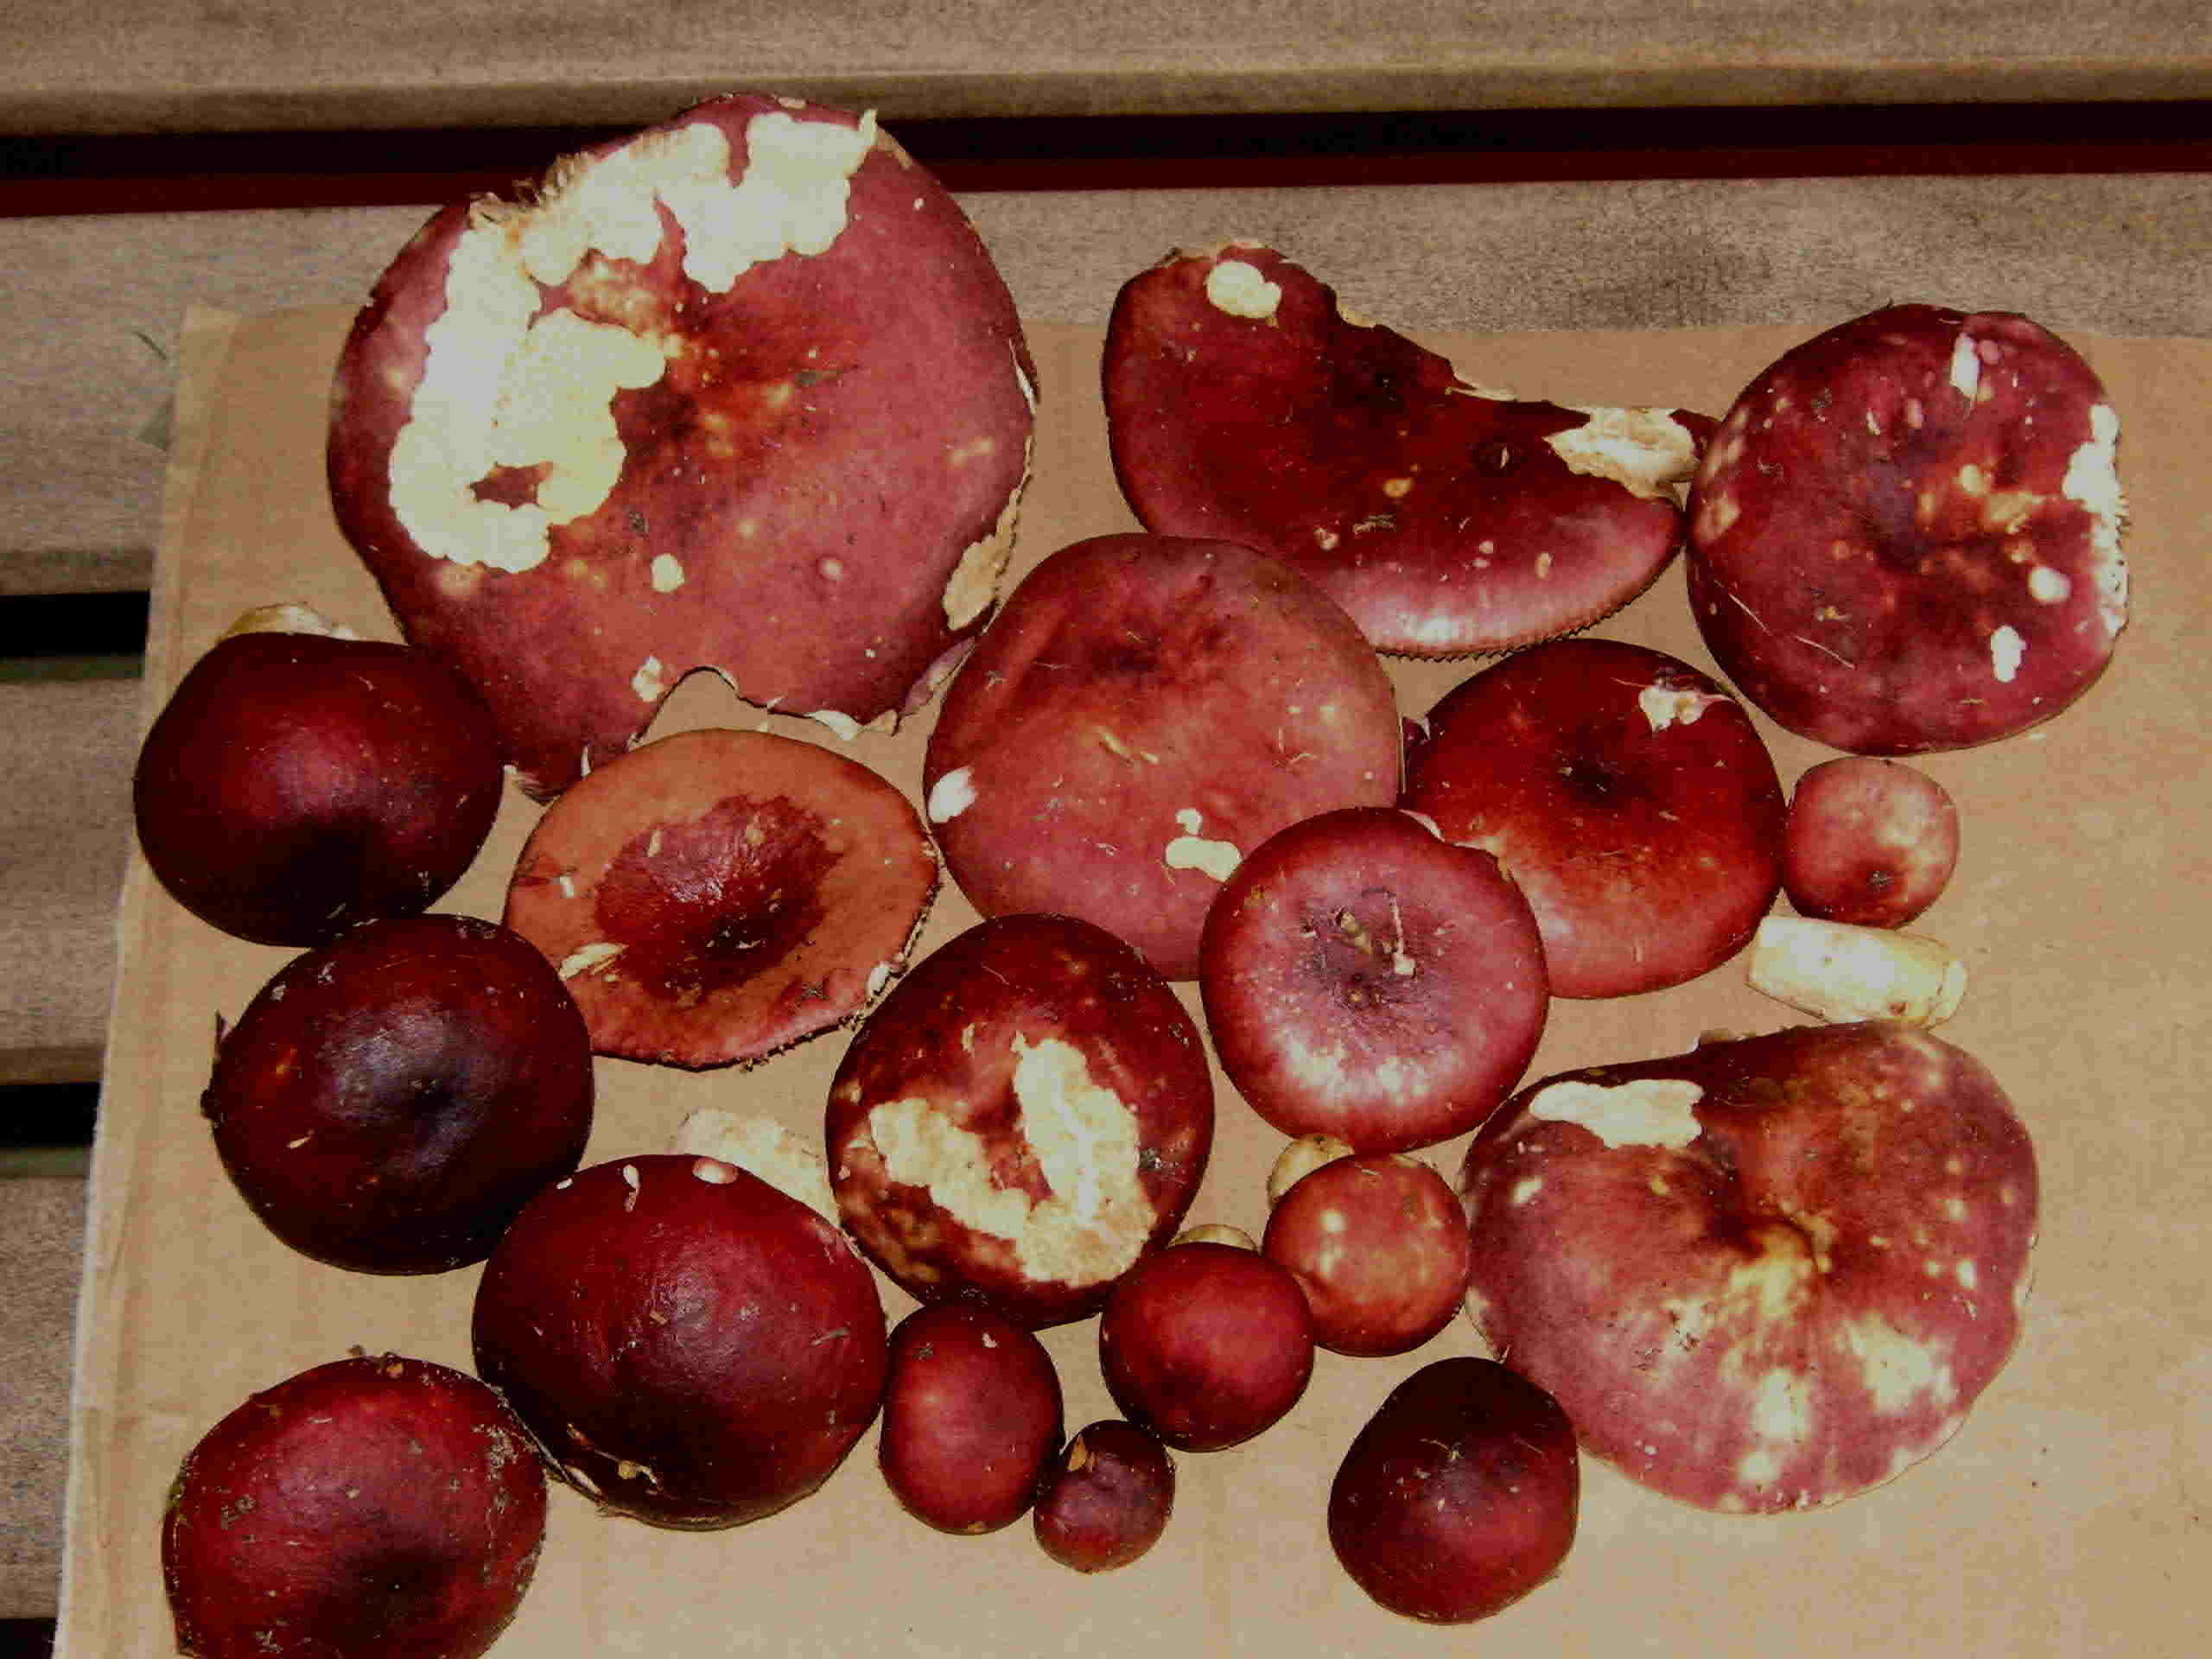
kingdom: Fungi
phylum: Basidiomycota
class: Agaricomycetes
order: Russulales
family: Russulaceae
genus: Russula
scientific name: Russula xerampelina
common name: hummer-skørhat
